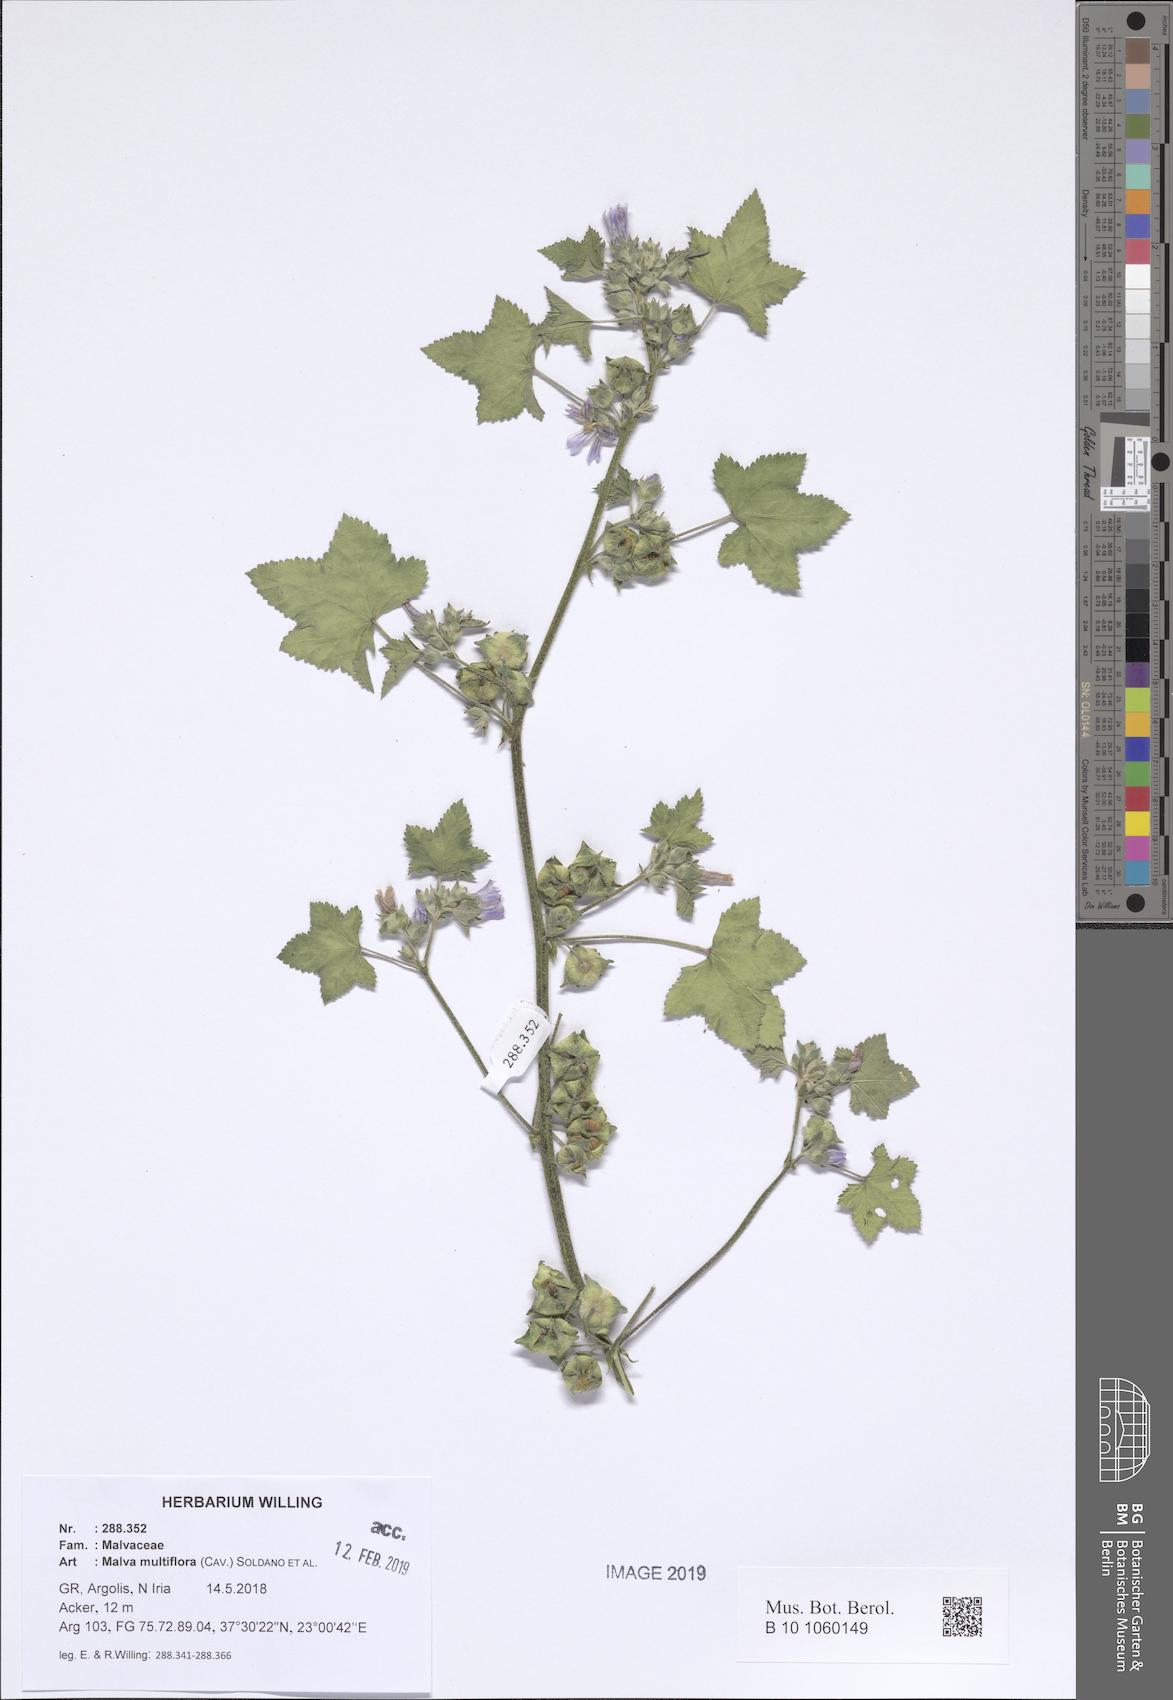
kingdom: Plantae
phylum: Tracheophyta
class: Magnoliopsida
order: Malvales
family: Malvaceae
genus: Malva
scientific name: Malva multiflora
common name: Cheeseweed
